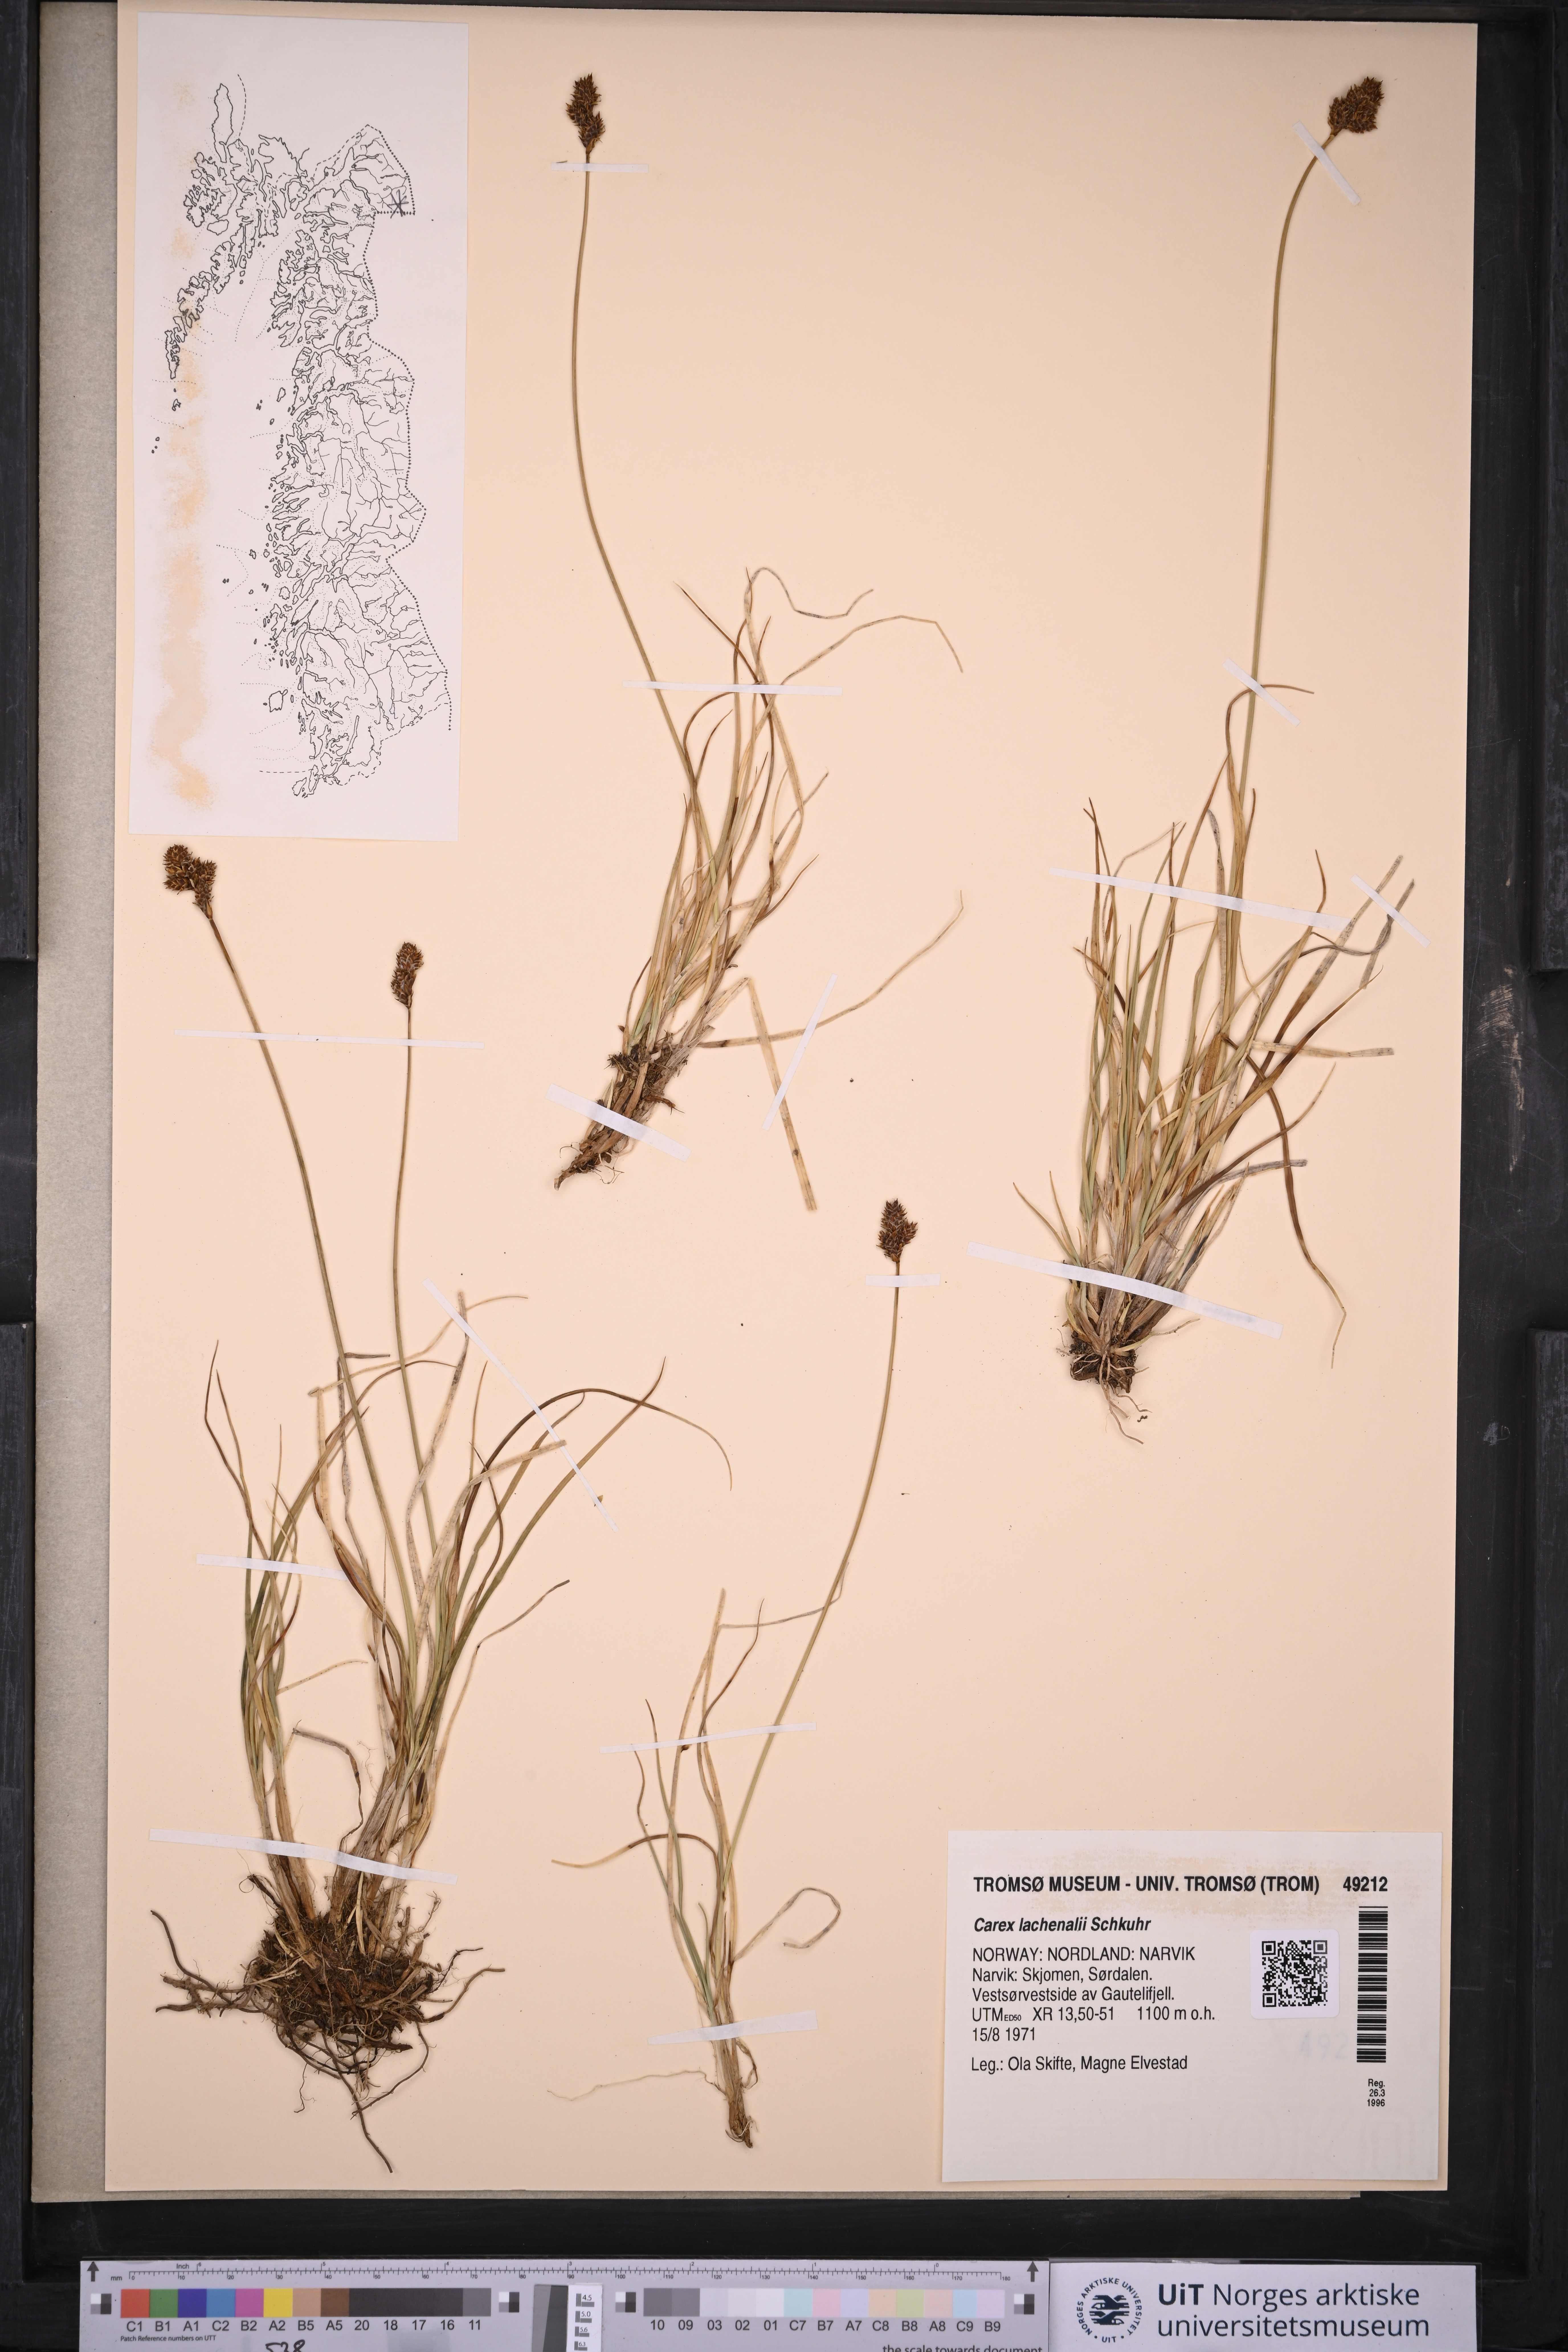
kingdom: Plantae
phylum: Tracheophyta
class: Liliopsida
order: Poales
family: Cyperaceae
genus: Carex
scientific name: Carex lachenalii
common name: Hare's-foot sedge
